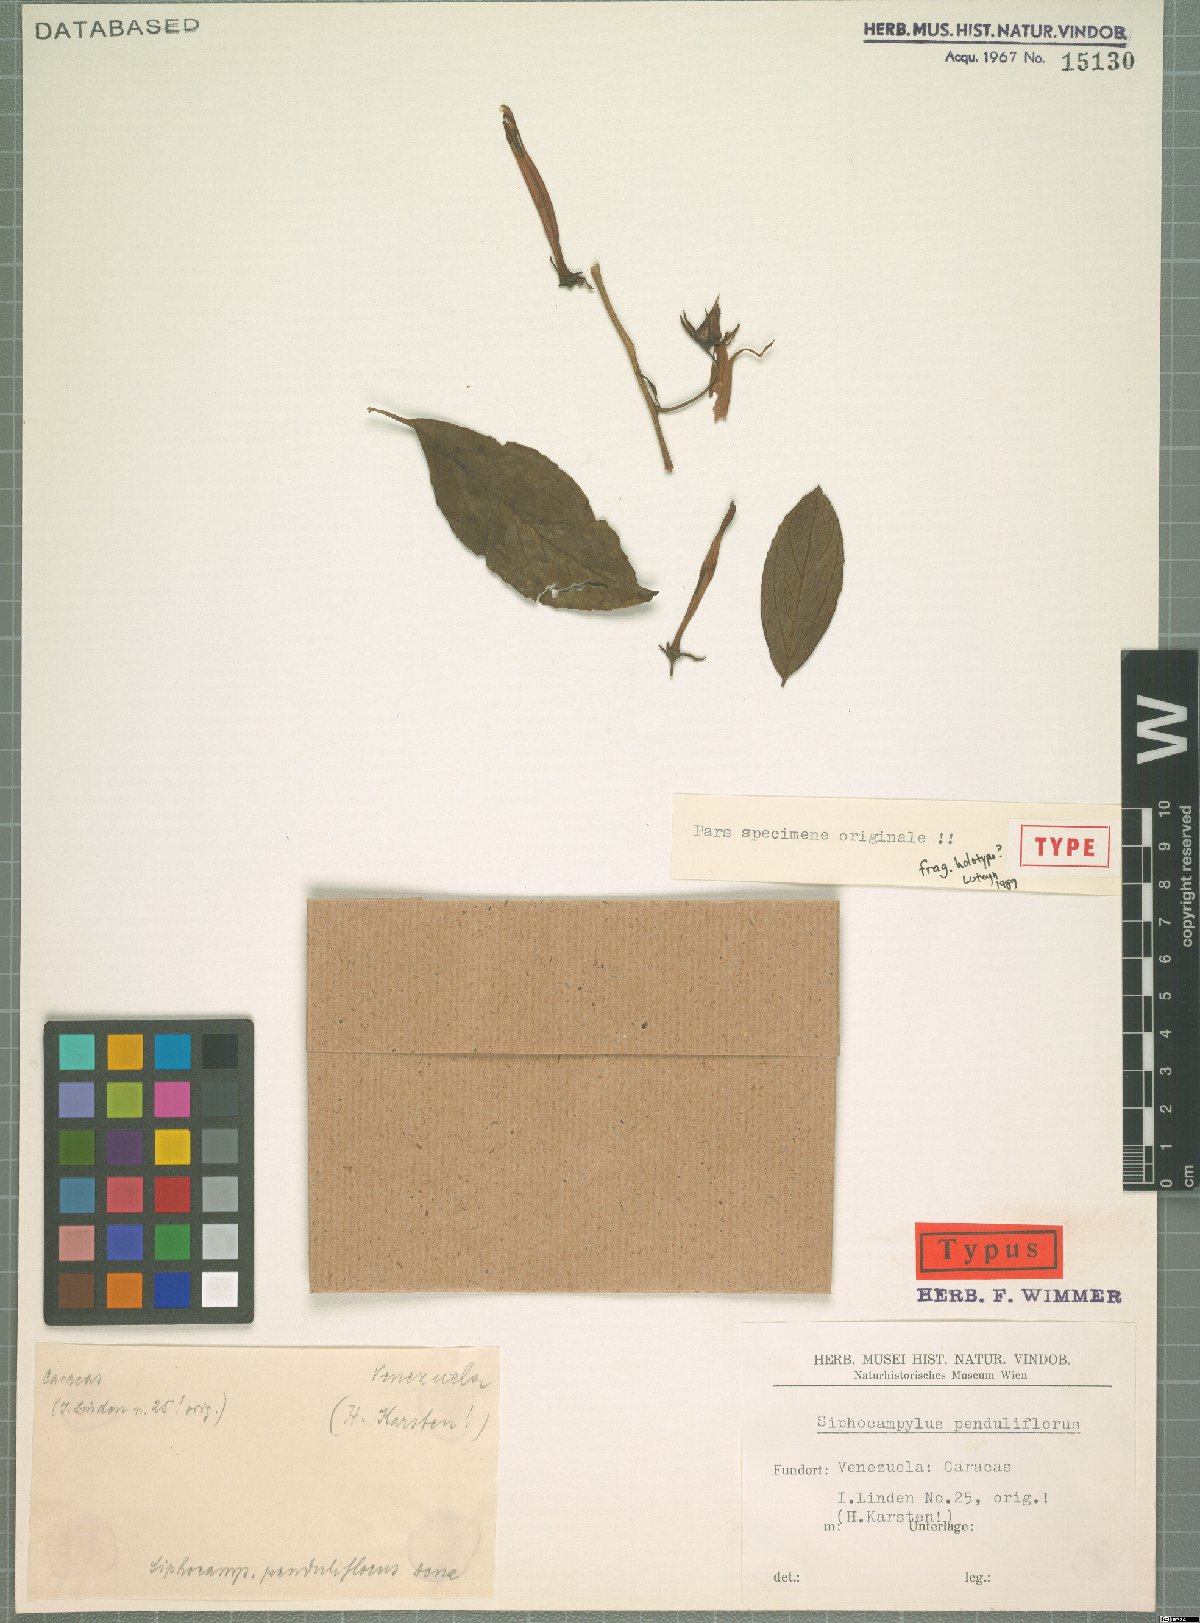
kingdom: Plantae
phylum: Tracheophyta
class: Magnoliopsida
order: Asterales
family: Campanulaceae
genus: Siphocampylus
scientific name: Siphocampylus penduliflorus
